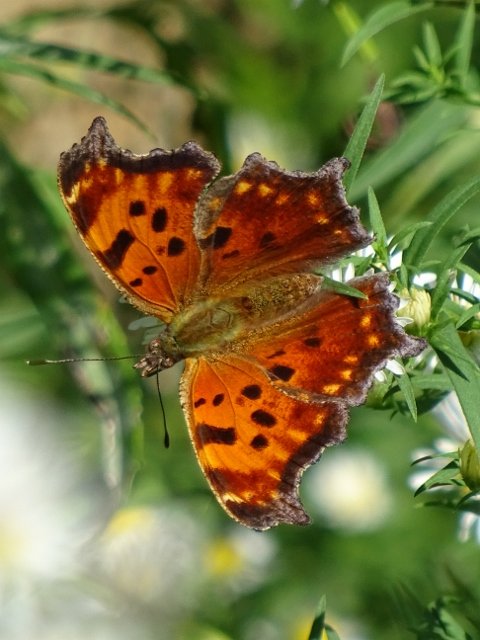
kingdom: Animalia
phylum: Arthropoda
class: Insecta
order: Lepidoptera
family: Nymphalidae
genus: Polygonia
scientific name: Polygonia comma
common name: Eastern Comma
